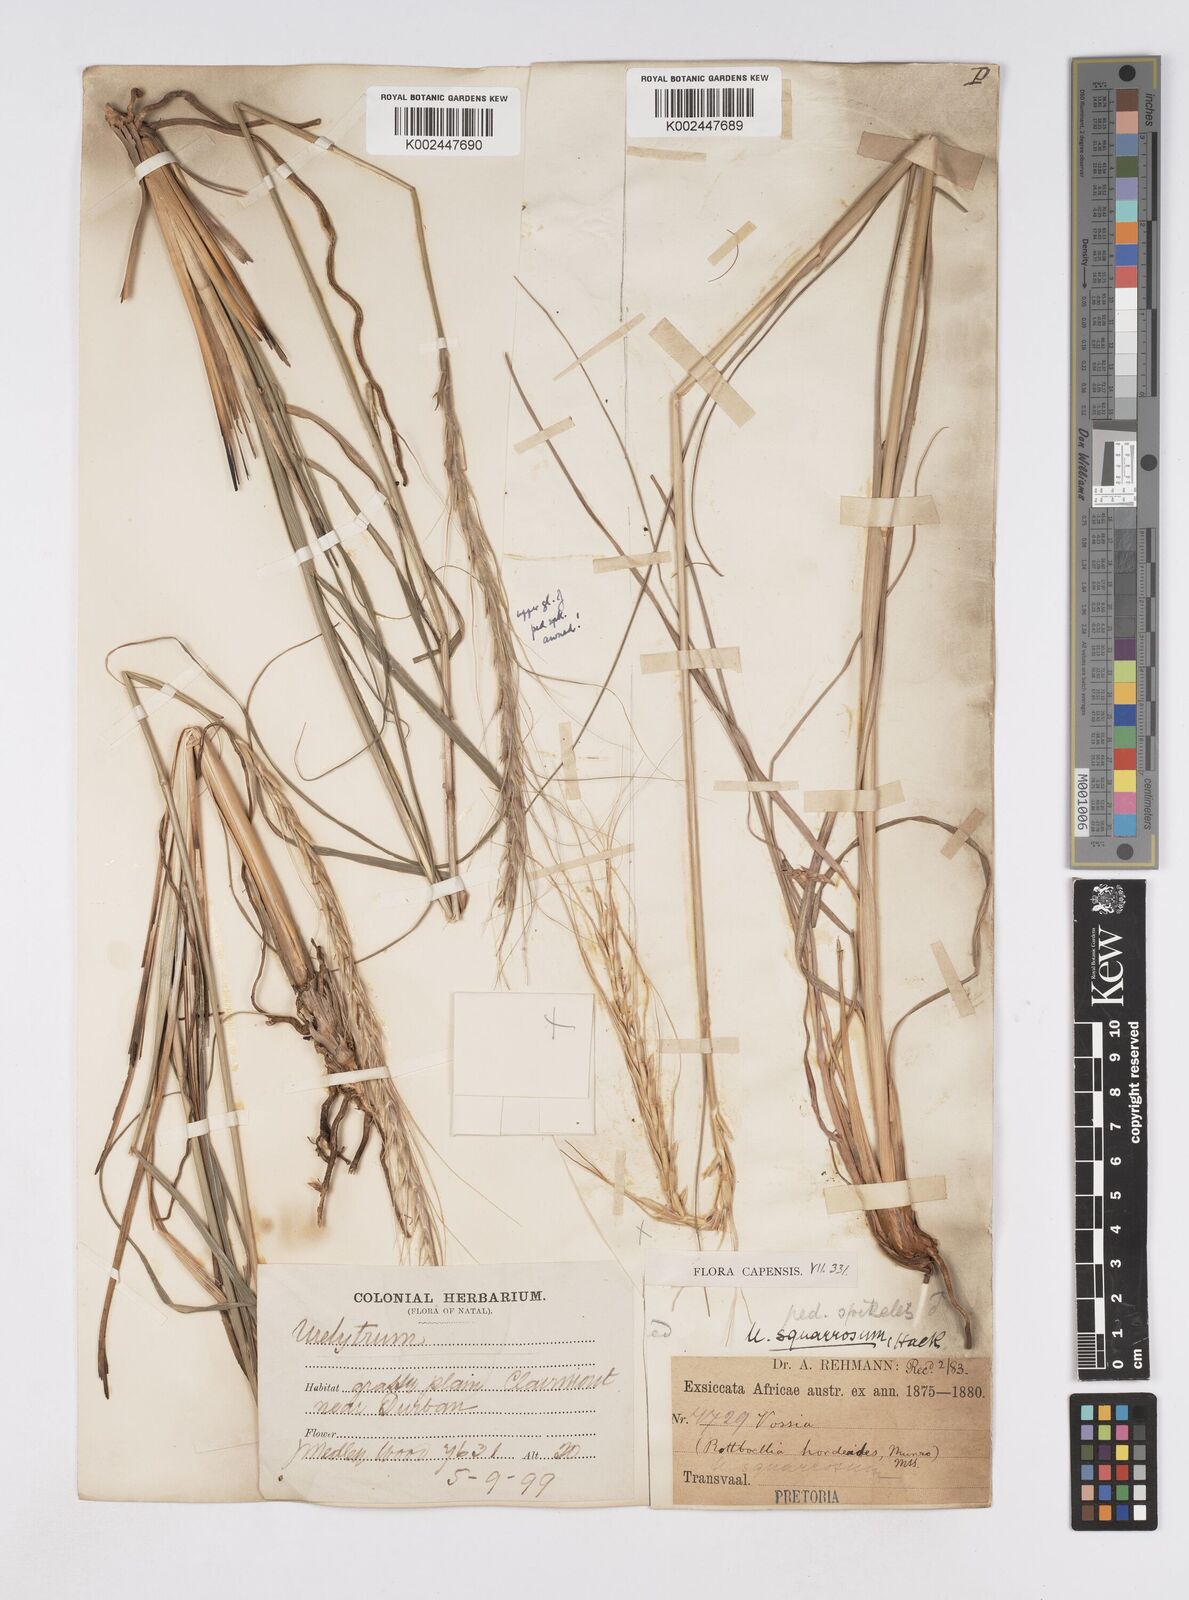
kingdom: Plantae
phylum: Tracheophyta
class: Liliopsida
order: Poales
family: Poaceae
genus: Urelytrum
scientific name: Urelytrum agropyroides
